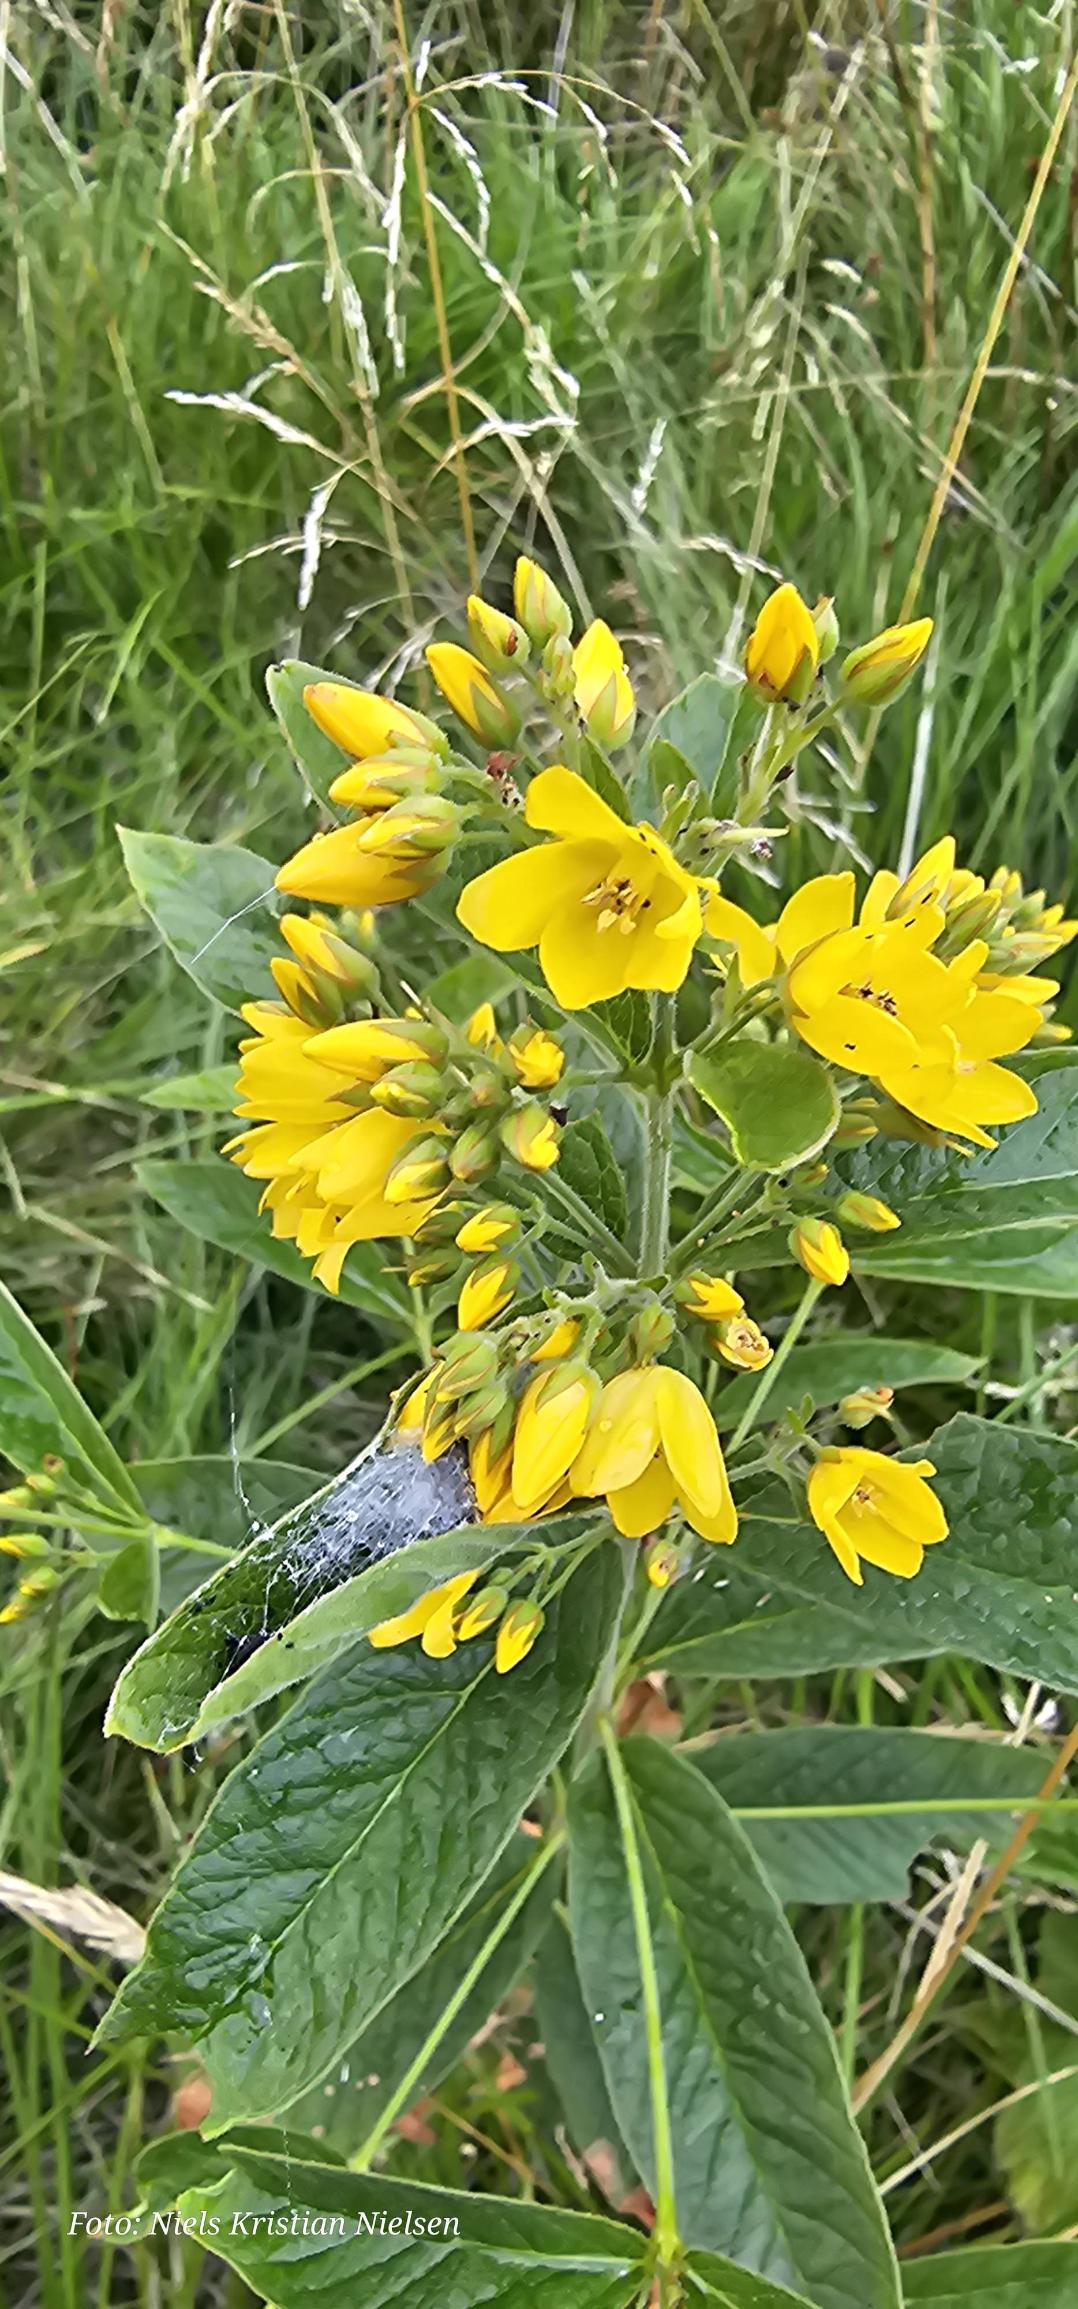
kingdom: Plantae
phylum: Tracheophyta
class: Magnoliopsida
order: Ericales
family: Primulaceae
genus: Lysimachia
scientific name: Lysimachia vulgaris
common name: Almindelig fredløs
